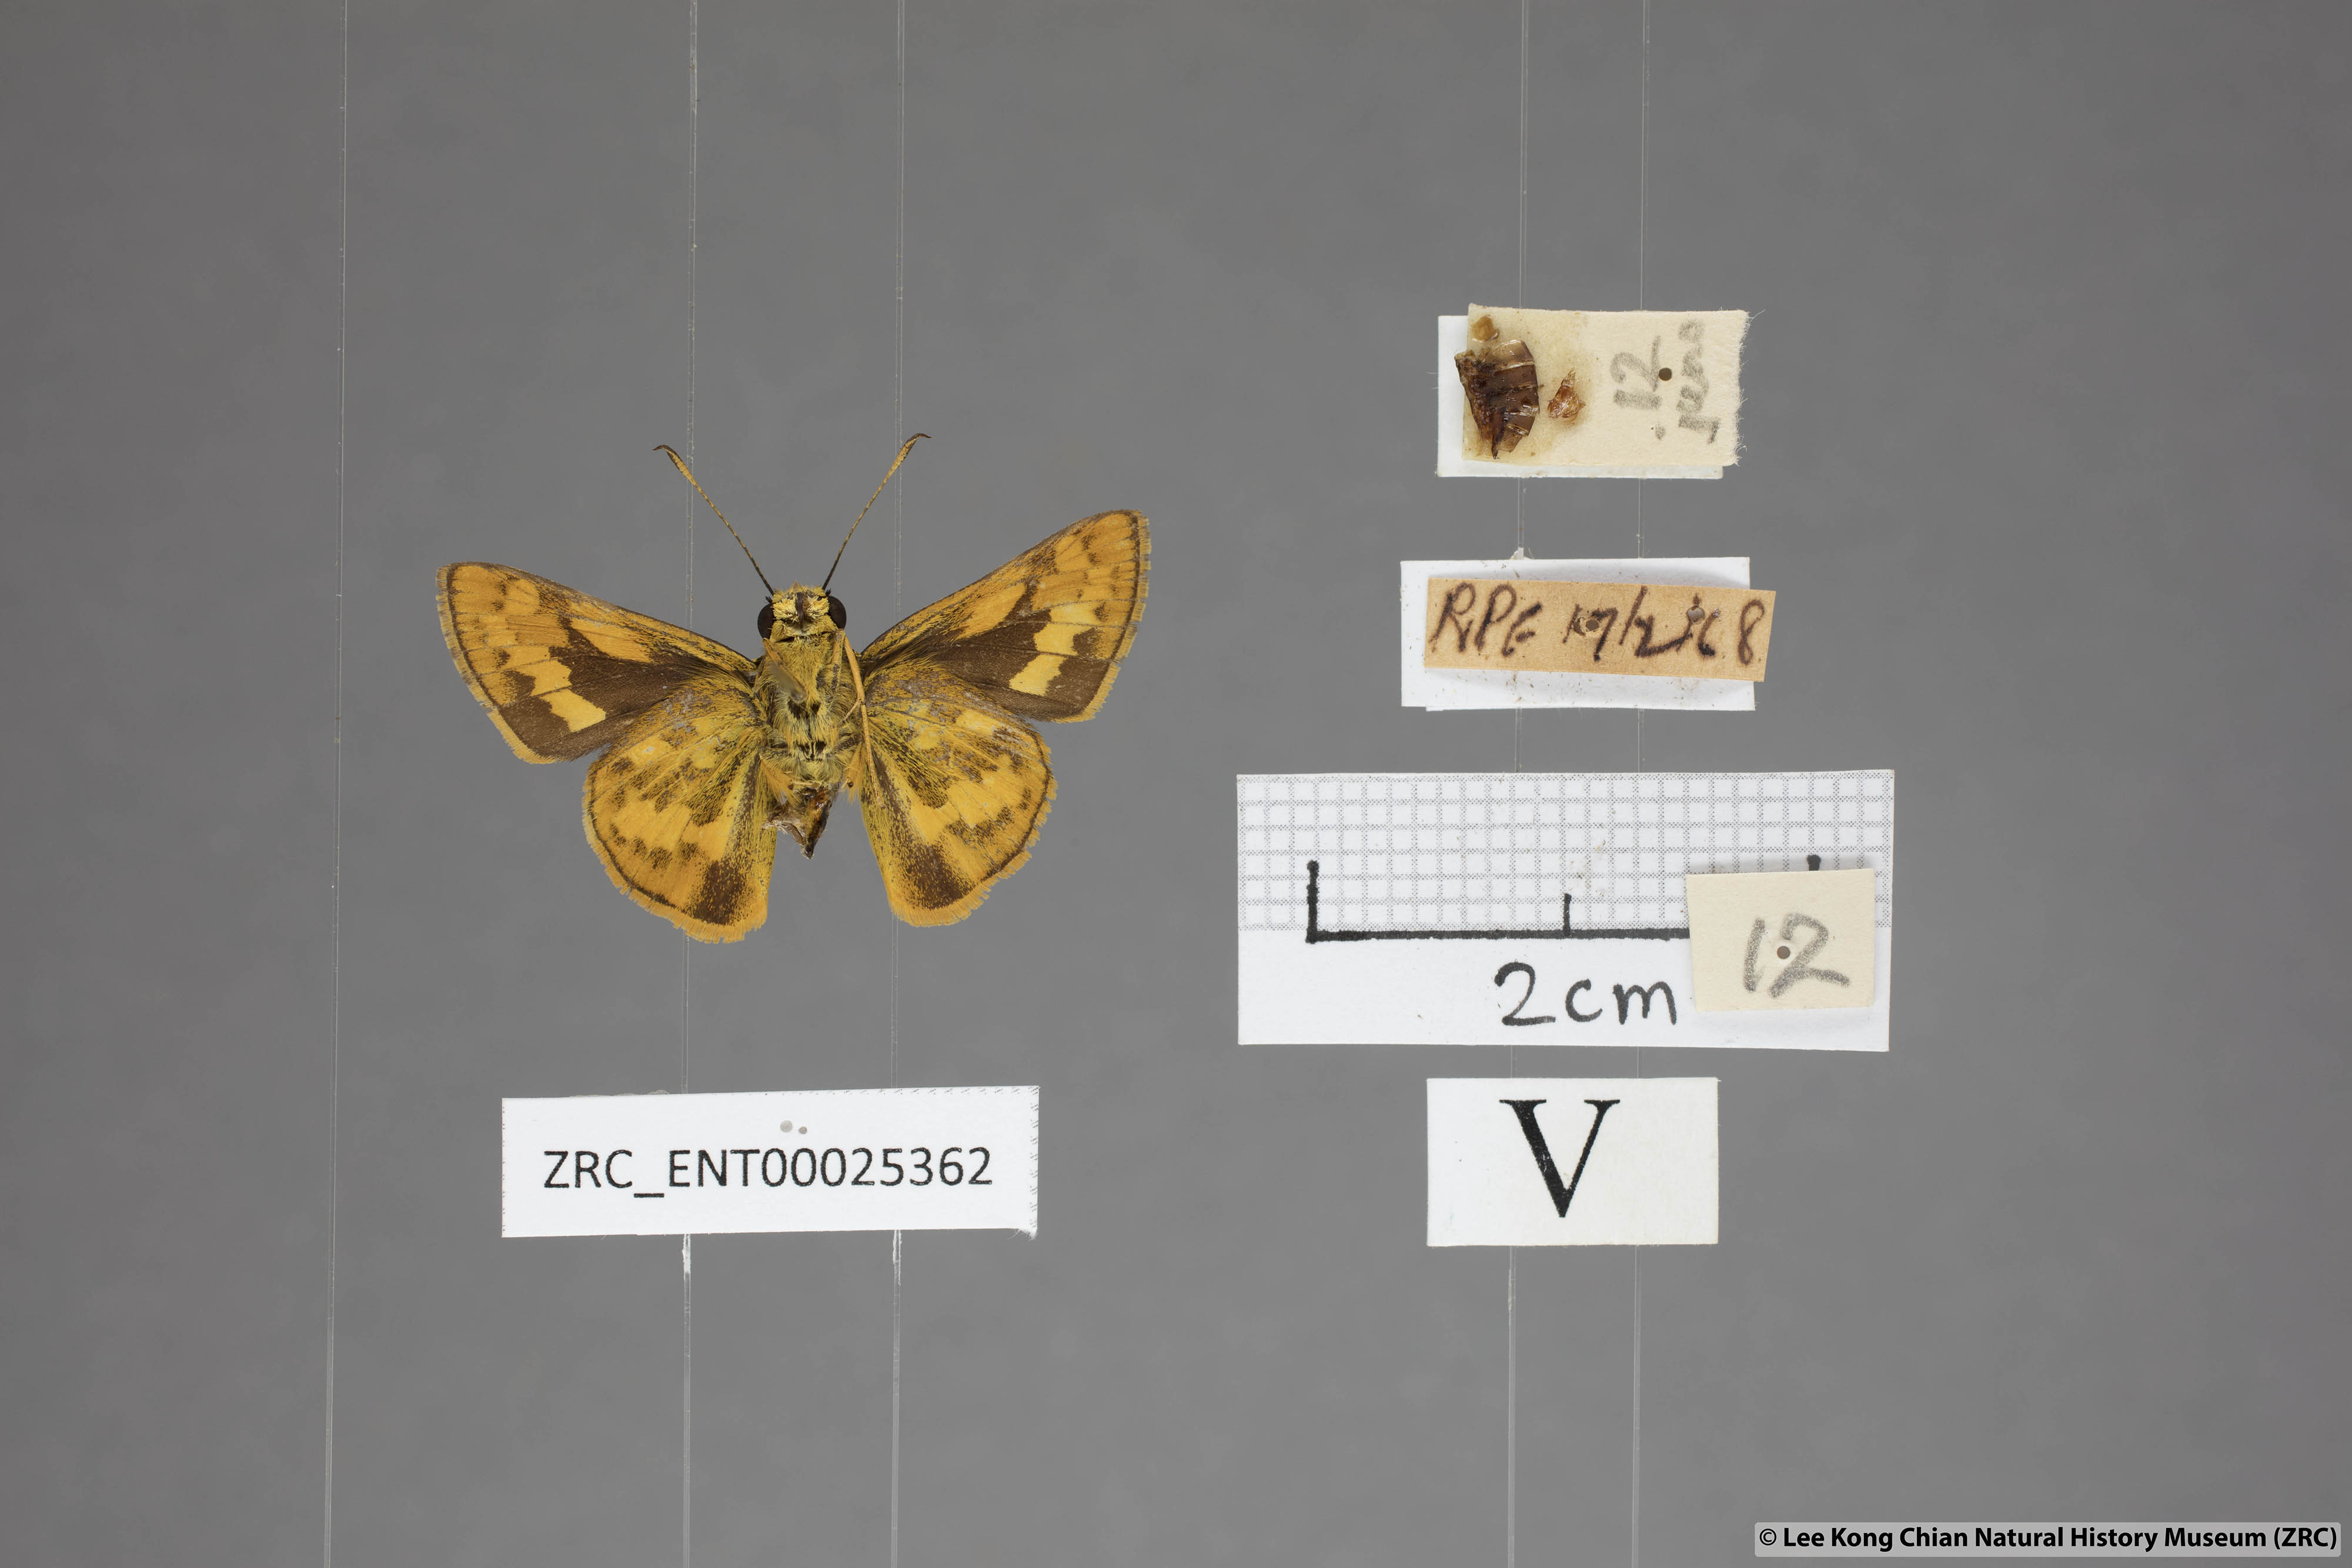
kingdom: Animalia
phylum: Arthropoda
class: Insecta
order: Lepidoptera
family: Hesperiidae
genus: Potanthus
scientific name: Potanthus juno
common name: Overlapped dart
